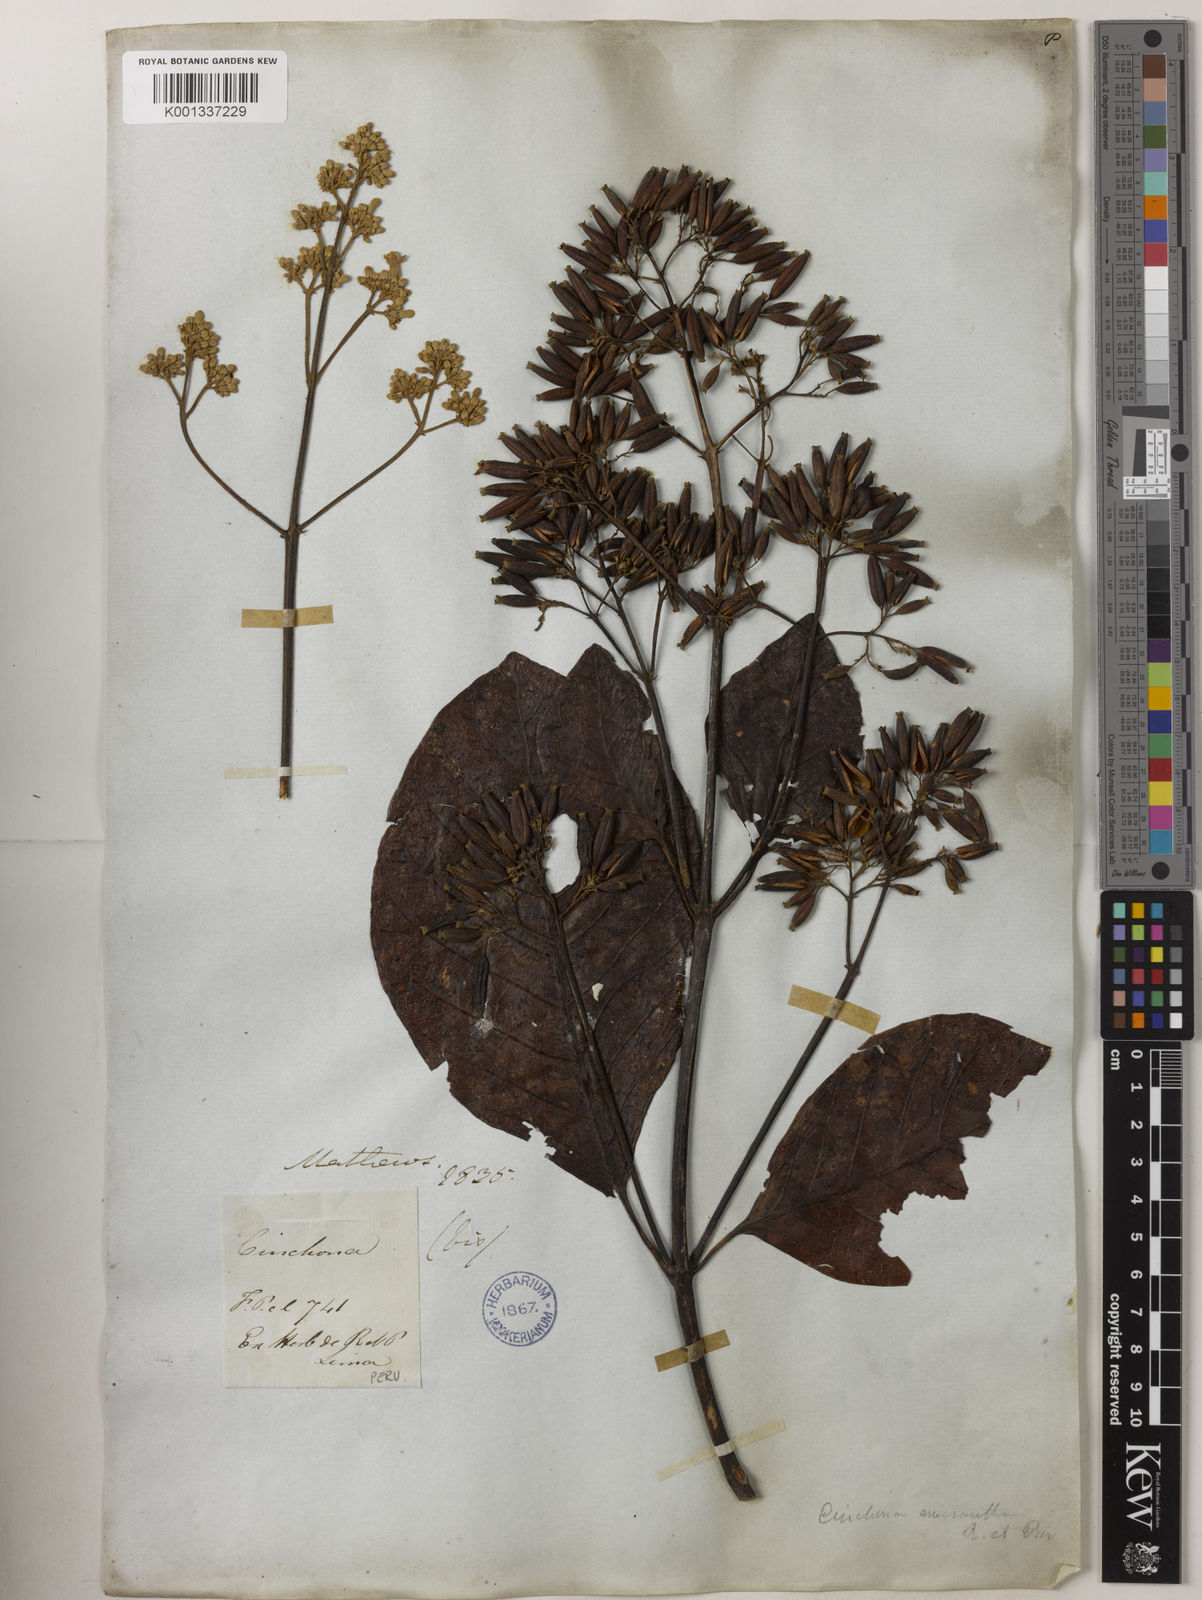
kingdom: Plantae
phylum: Tracheophyta
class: Magnoliopsida
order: Gentianales
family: Rubiaceae
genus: Cinchona
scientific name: Cinchona micrantha
